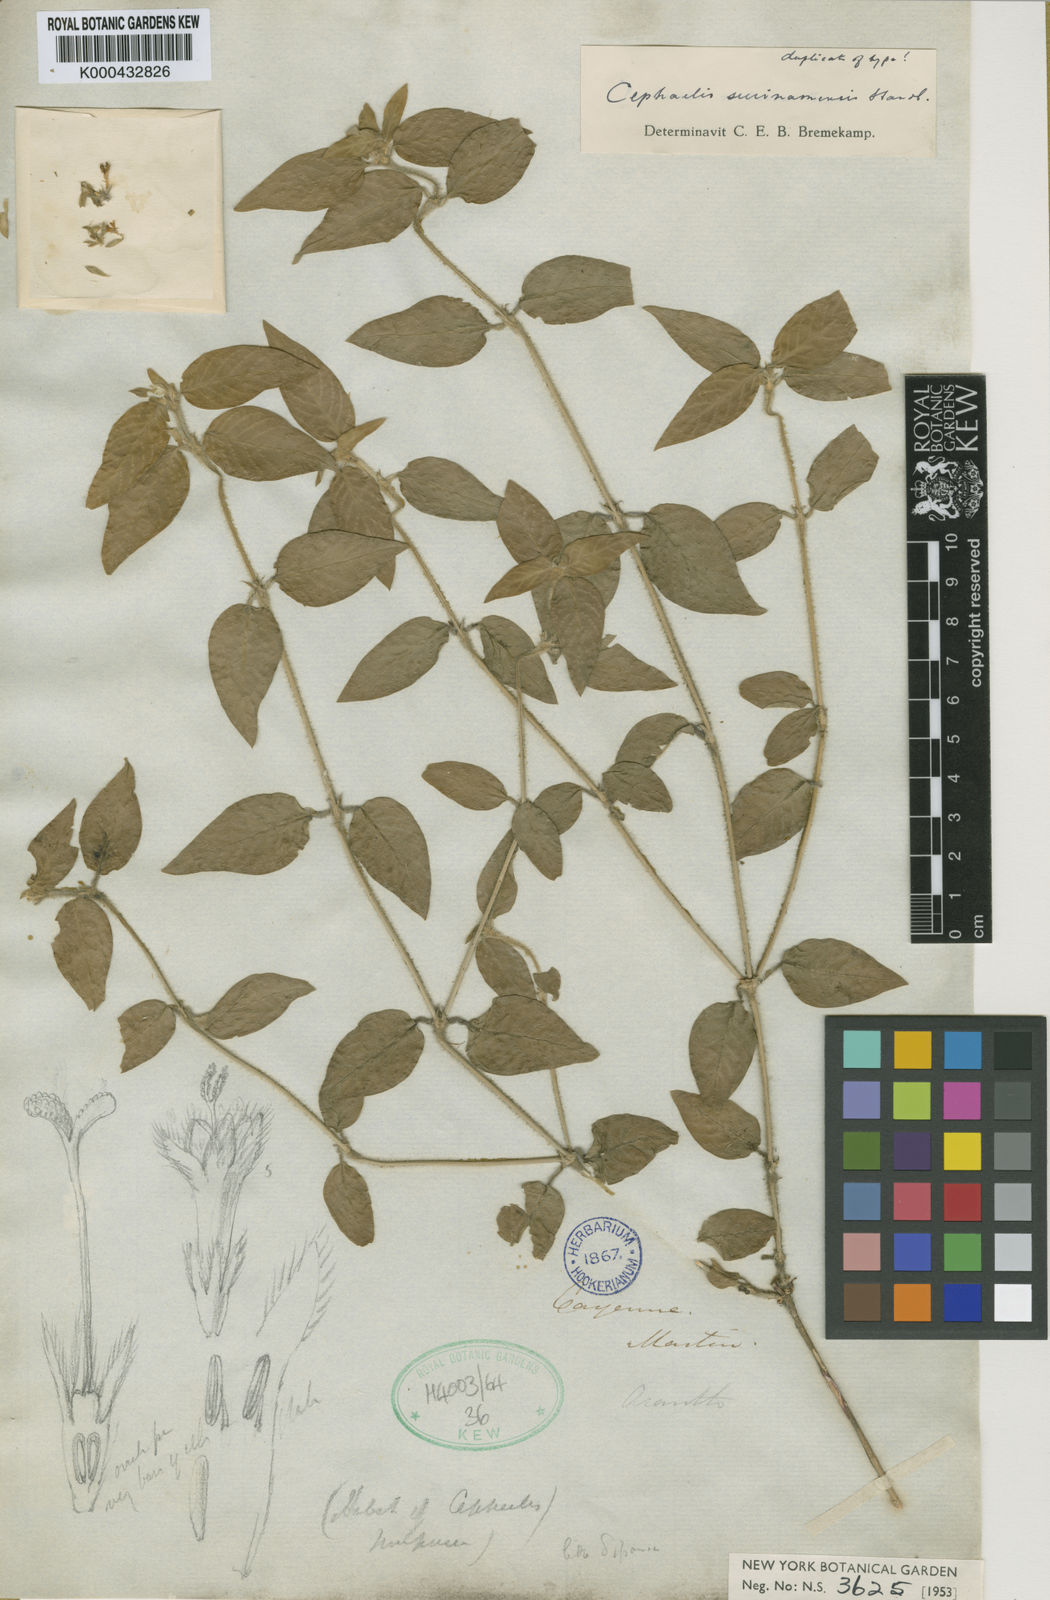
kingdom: Plantae
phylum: Tracheophyta
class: Magnoliopsida
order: Gentianales
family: Rubiaceae
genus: Palicourea
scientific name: Palicourea debilis
